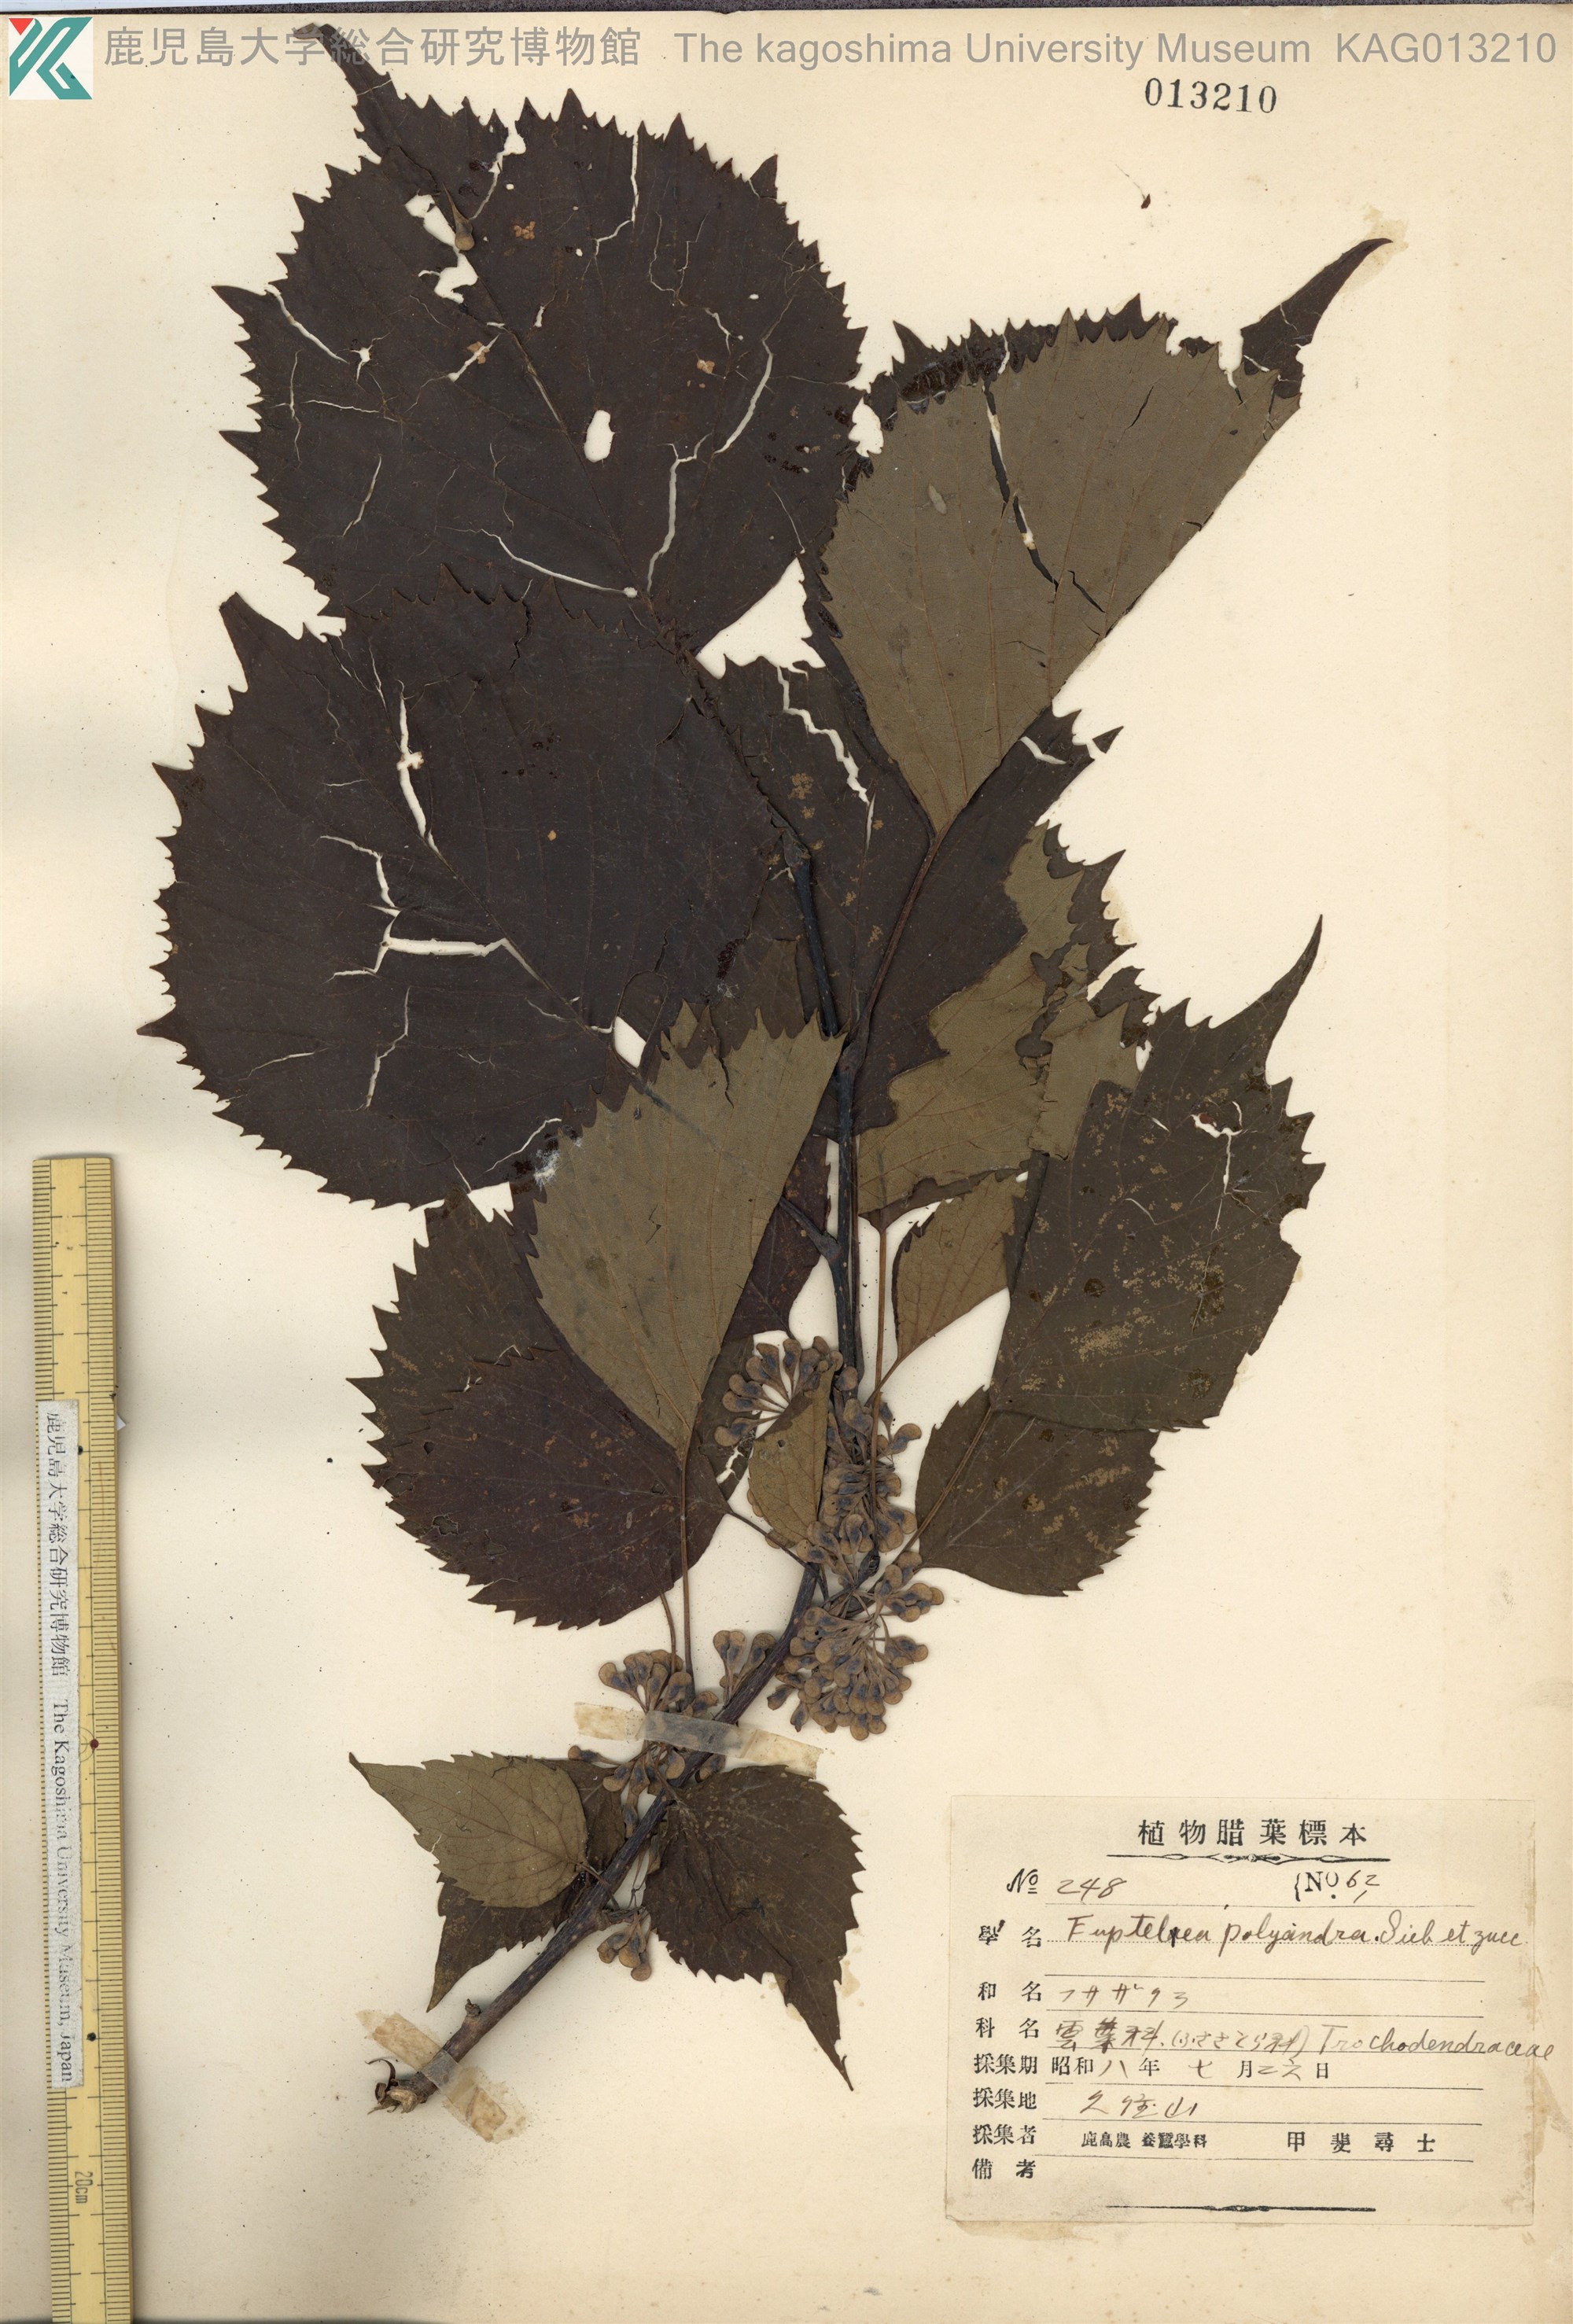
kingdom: Plantae
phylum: Tracheophyta
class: Magnoliopsida
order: Ranunculales
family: Eupteleaceae
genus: Euptelea
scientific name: Euptelea polyandra
